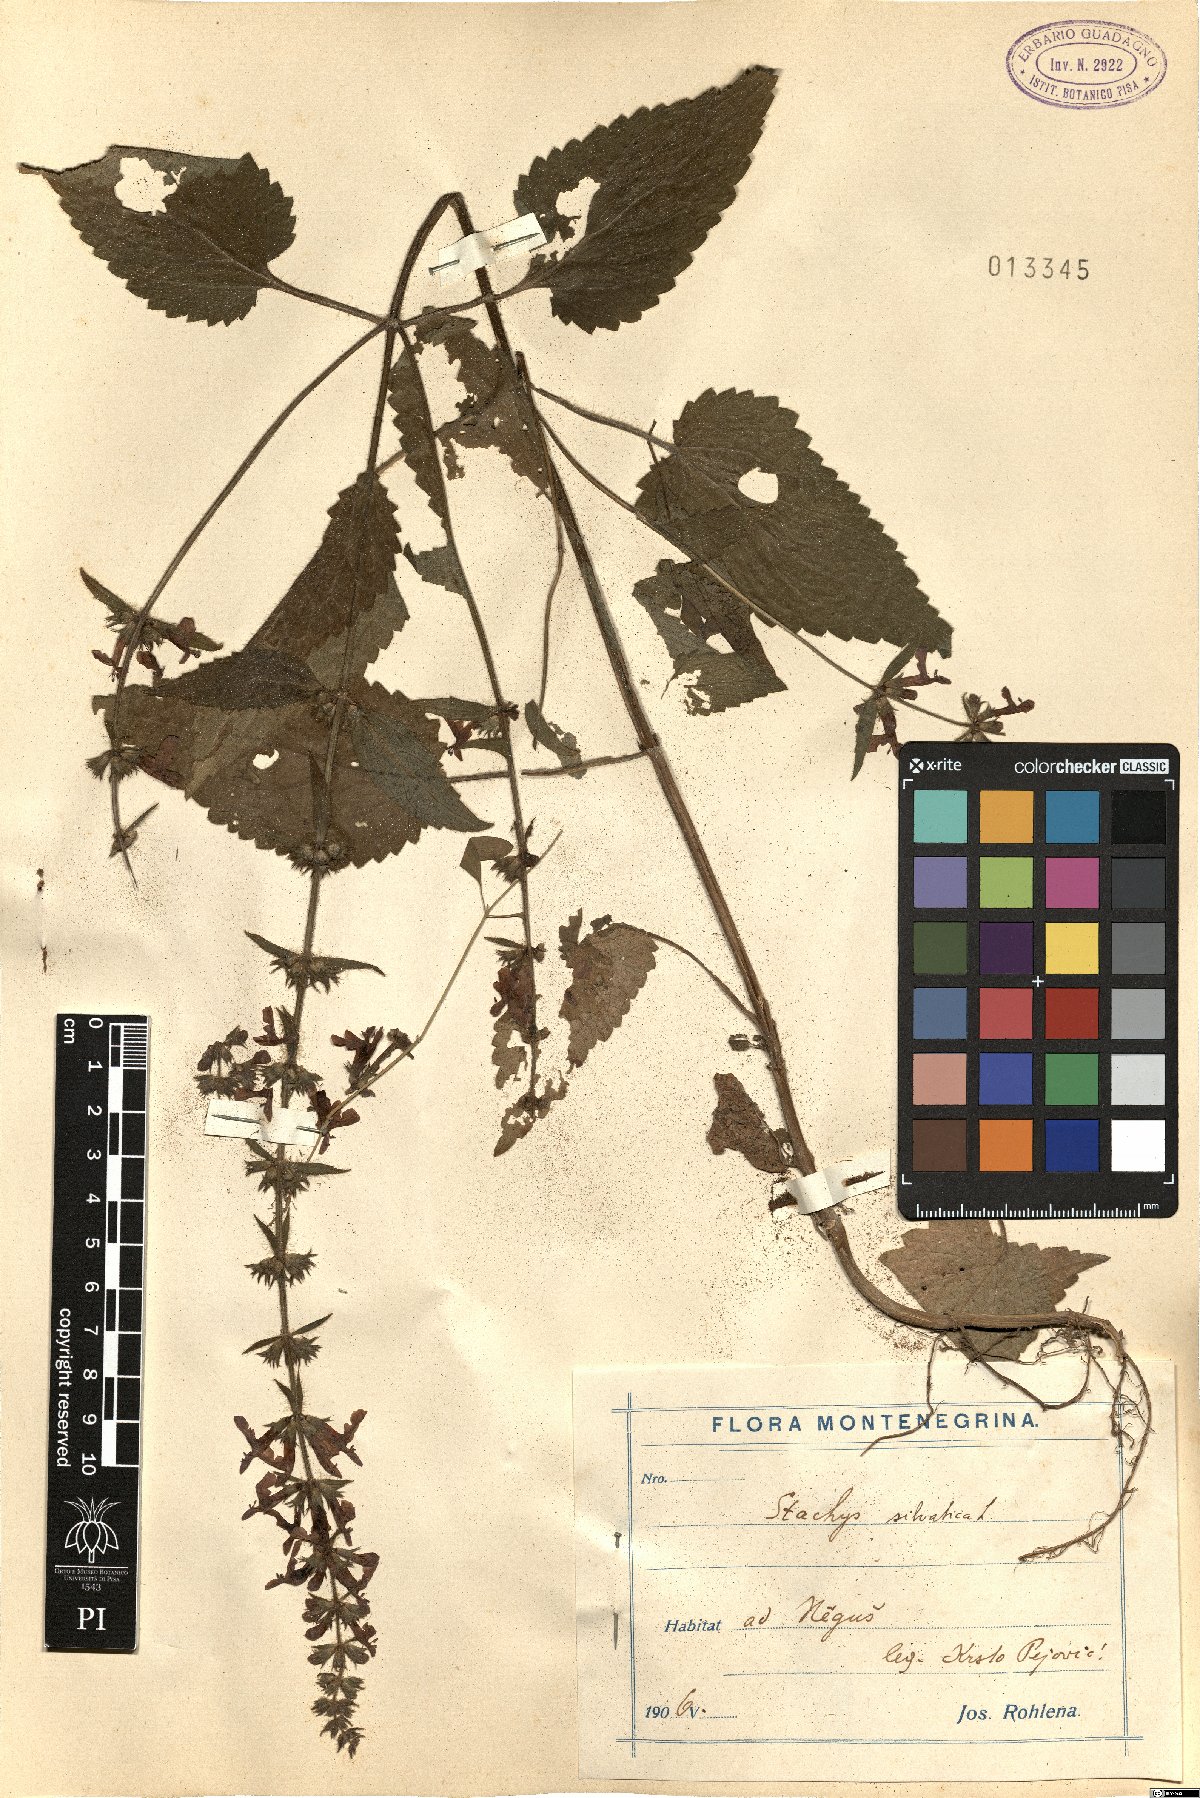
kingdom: Plantae
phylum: Tracheophyta
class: Magnoliopsida
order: Lamiales
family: Lamiaceae
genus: Stachys
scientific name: Stachys sylvatica
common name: Hedge woundwort
